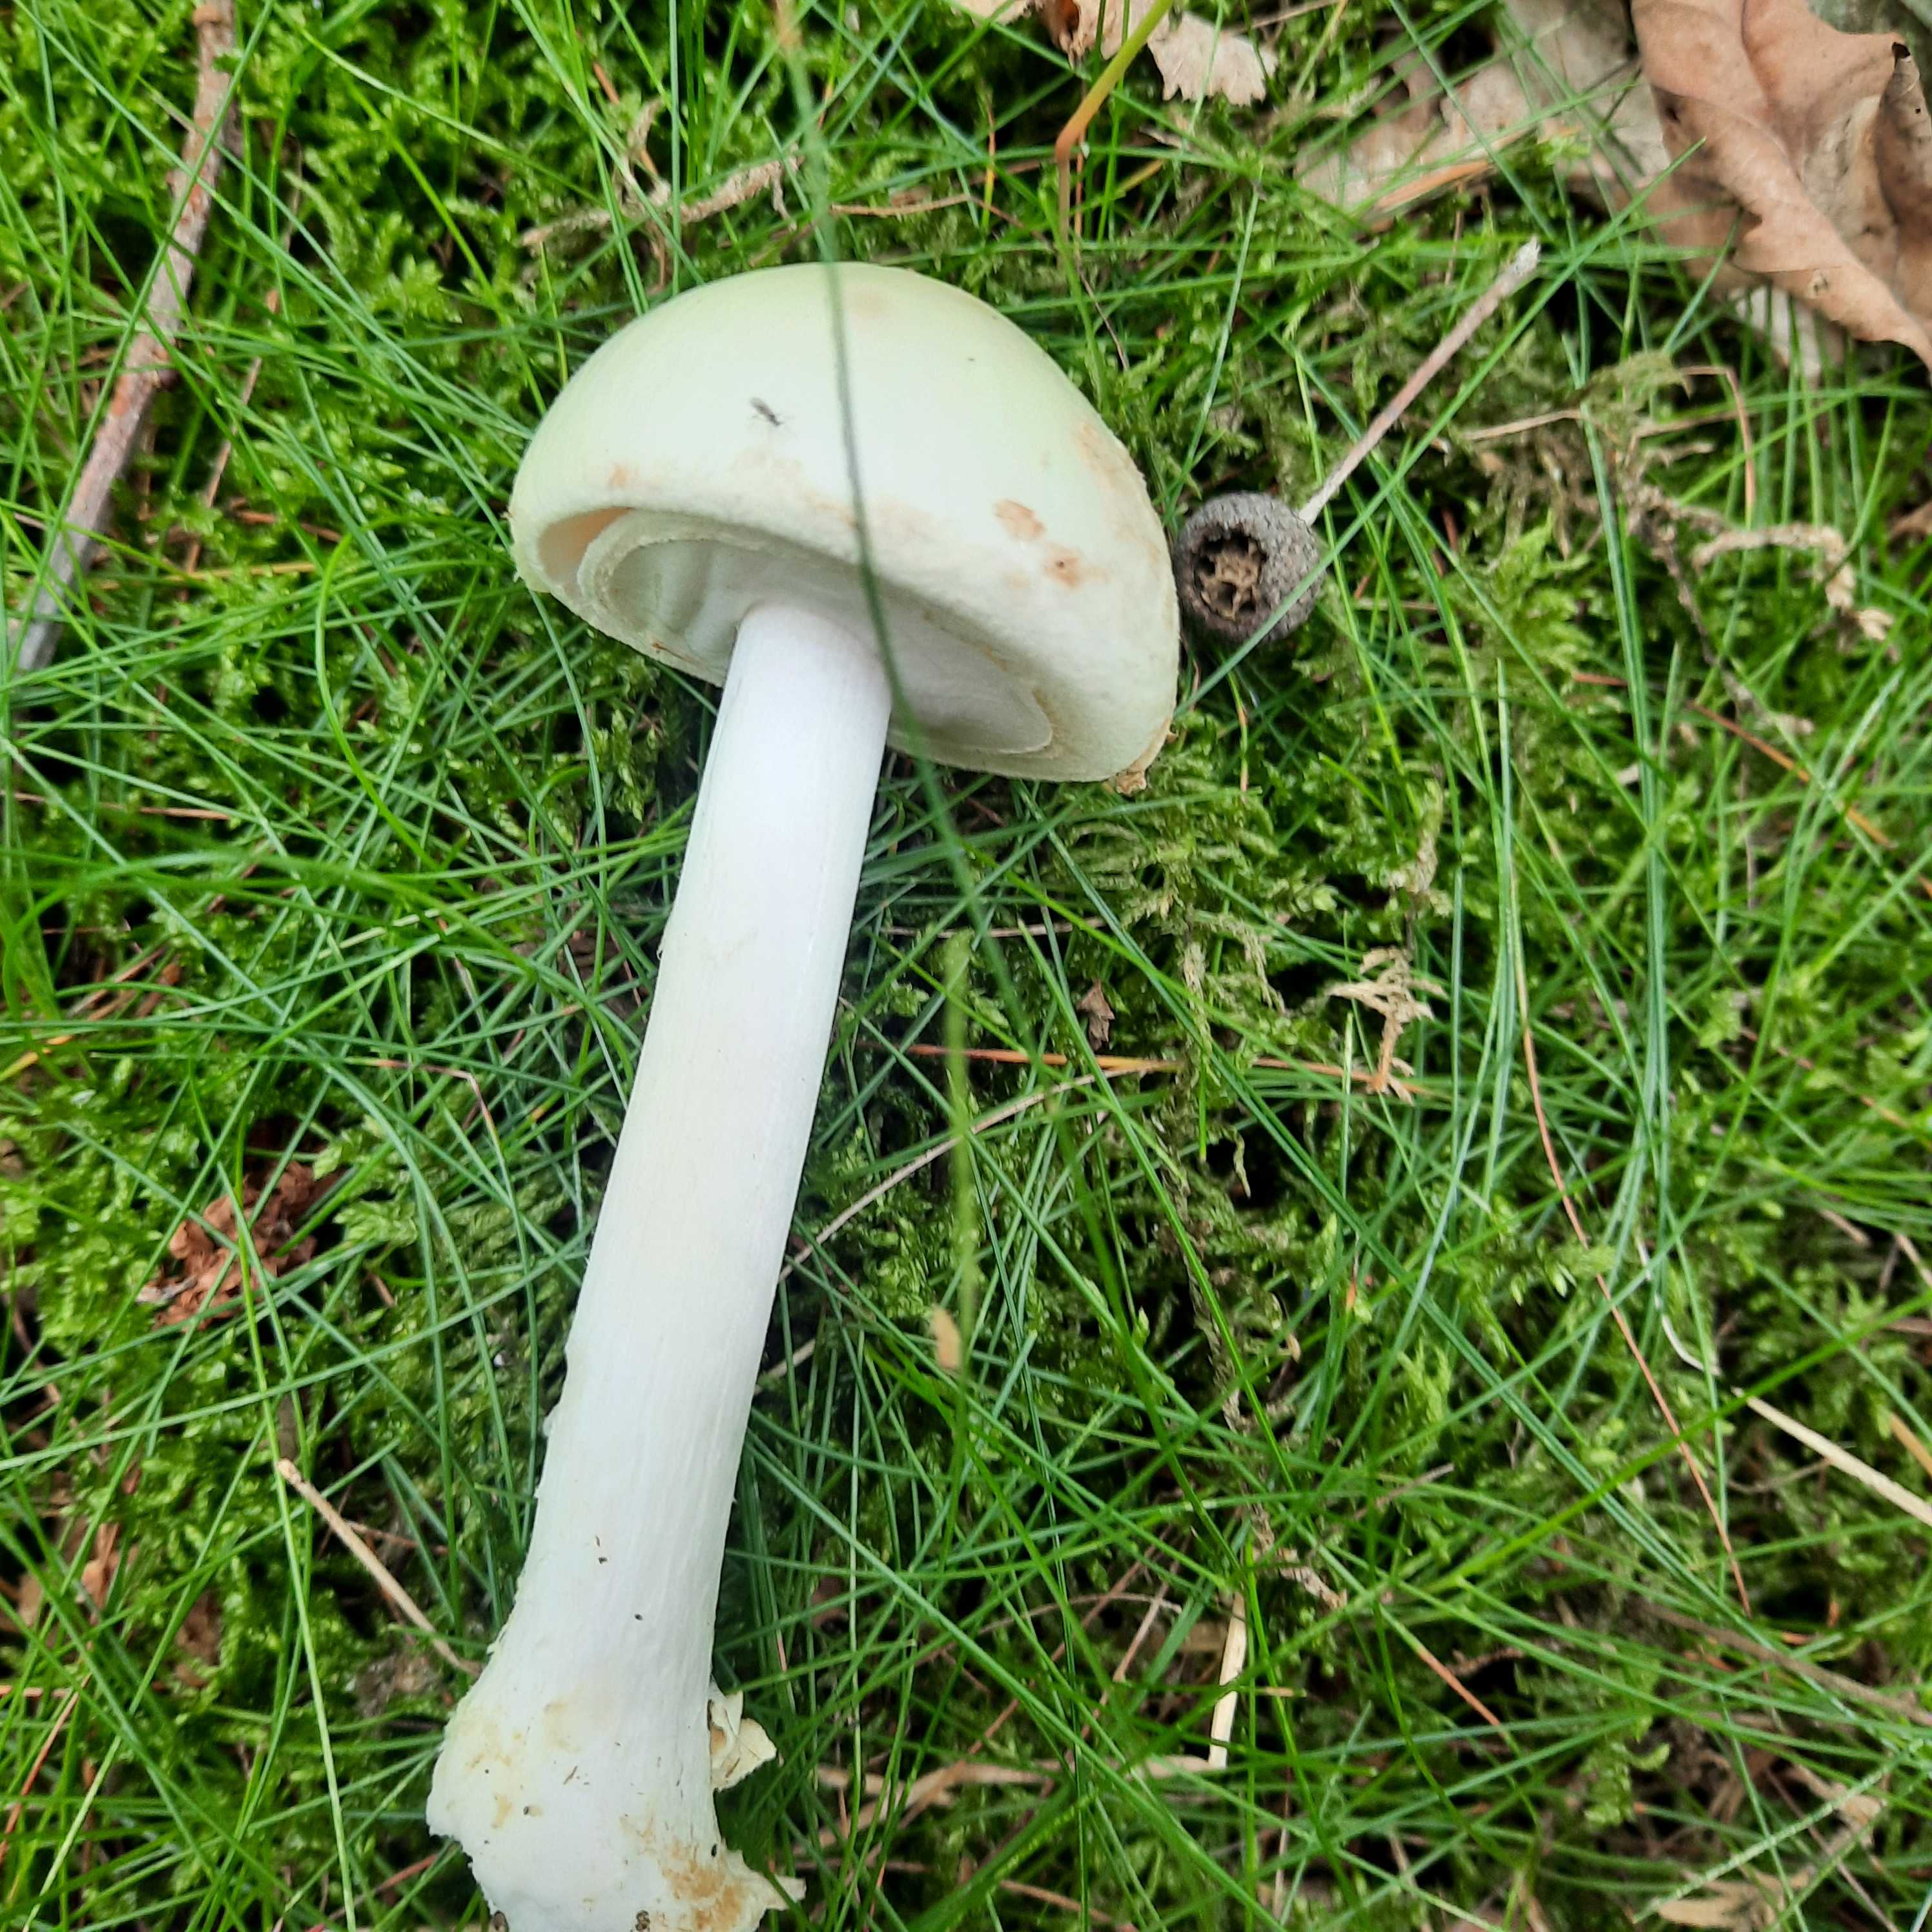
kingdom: Fungi
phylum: Basidiomycota
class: Agaricomycetes
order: Agaricales
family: Amanitaceae
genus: Amanita
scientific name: Amanita citrina
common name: kugleknoldet fluesvamp
